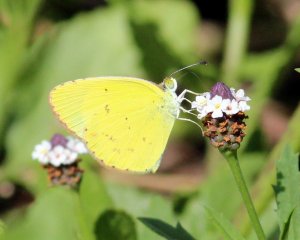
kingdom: Animalia
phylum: Arthropoda
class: Insecta
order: Lepidoptera
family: Pieridae
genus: Pyrisitia
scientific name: Pyrisitia lisa
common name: Little Yellow
